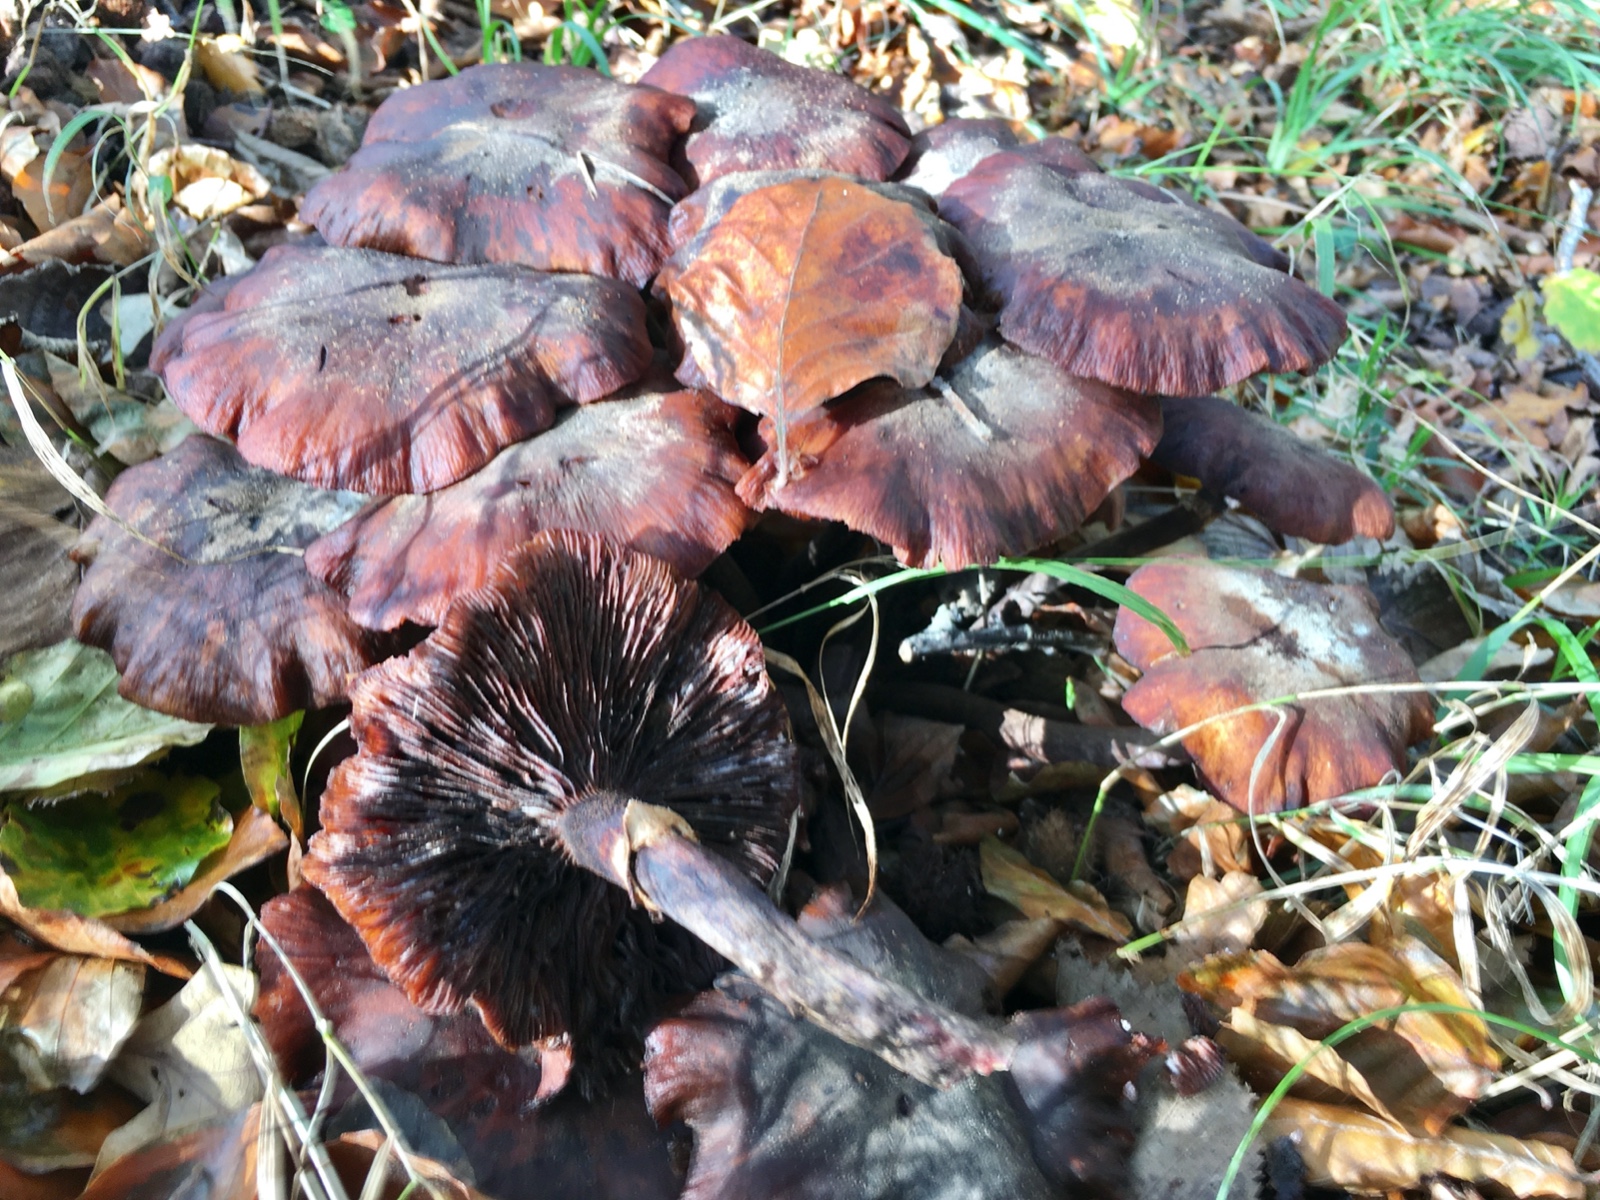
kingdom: Fungi
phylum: Basidiomycota
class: Agaricomycetes
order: Agaricales
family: Physalacriaceae
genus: Armillaria
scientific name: Armillaria mellea
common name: ægte honningsvamp
